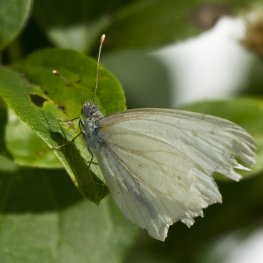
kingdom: Animalia
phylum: Arthropoda
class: Insecta
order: Lepidoptera
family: Pieridae
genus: Pieris
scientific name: Pieris oleracea
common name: Mustard White
